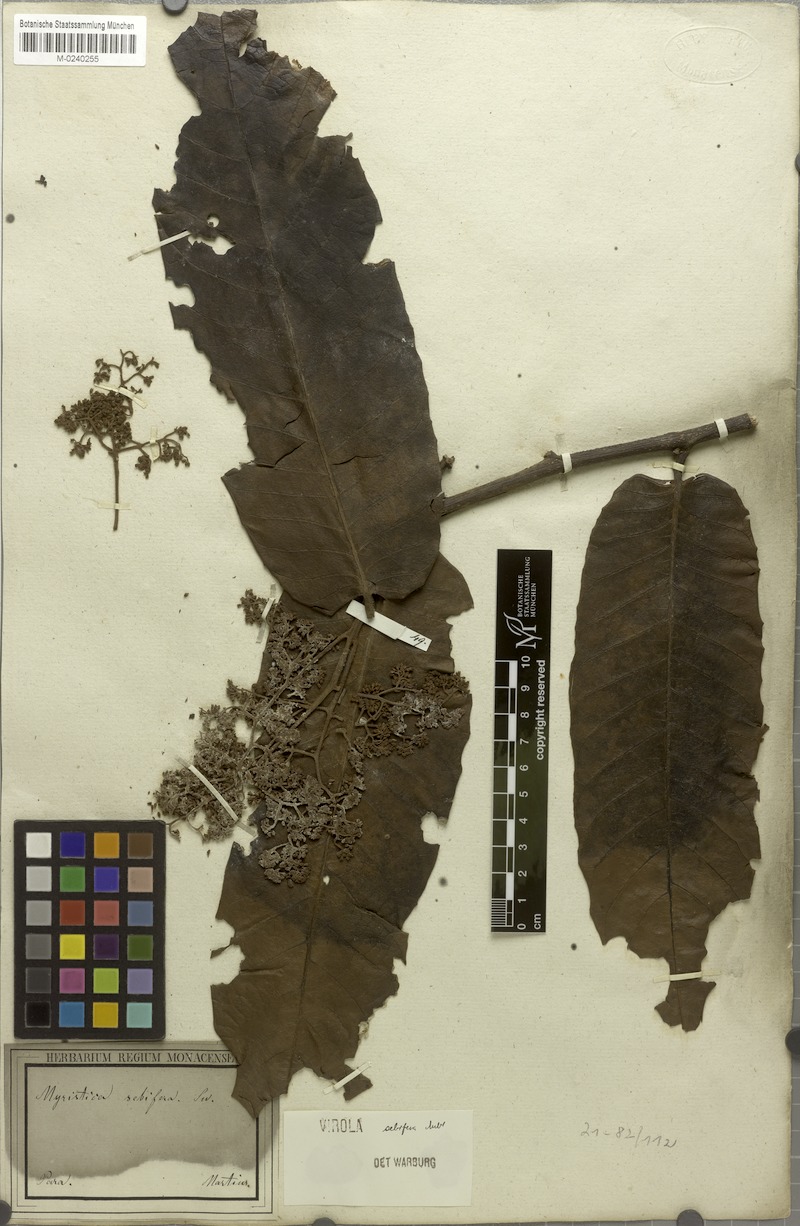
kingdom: Plantae
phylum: Tracheophyta
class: Magnoliopsida
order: Magnoliales
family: Myristicaceae
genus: Virola
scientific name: Virola sebifera
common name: Red ucuuba
